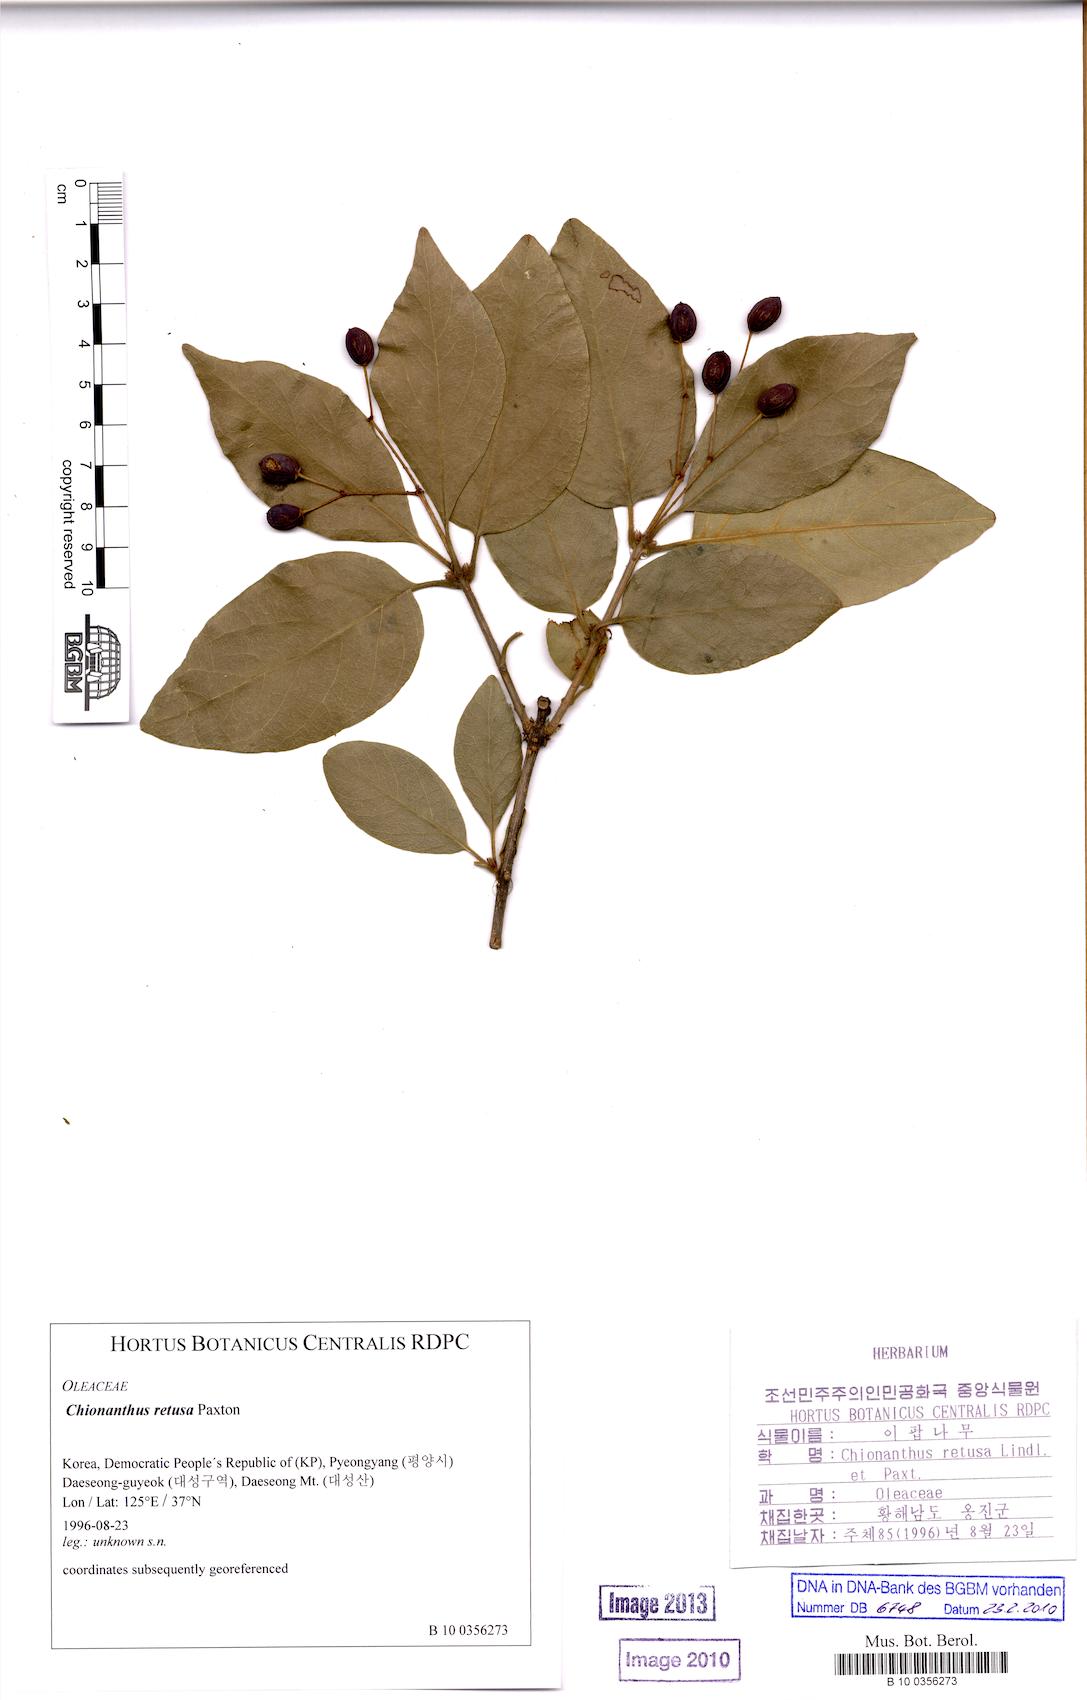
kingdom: Plantae
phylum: Tracheophyta
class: Magnoliopsida
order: Lamiales
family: Oleaceae
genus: Chionanthus
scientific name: Chionanthus retusus
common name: Chinese fringetree
